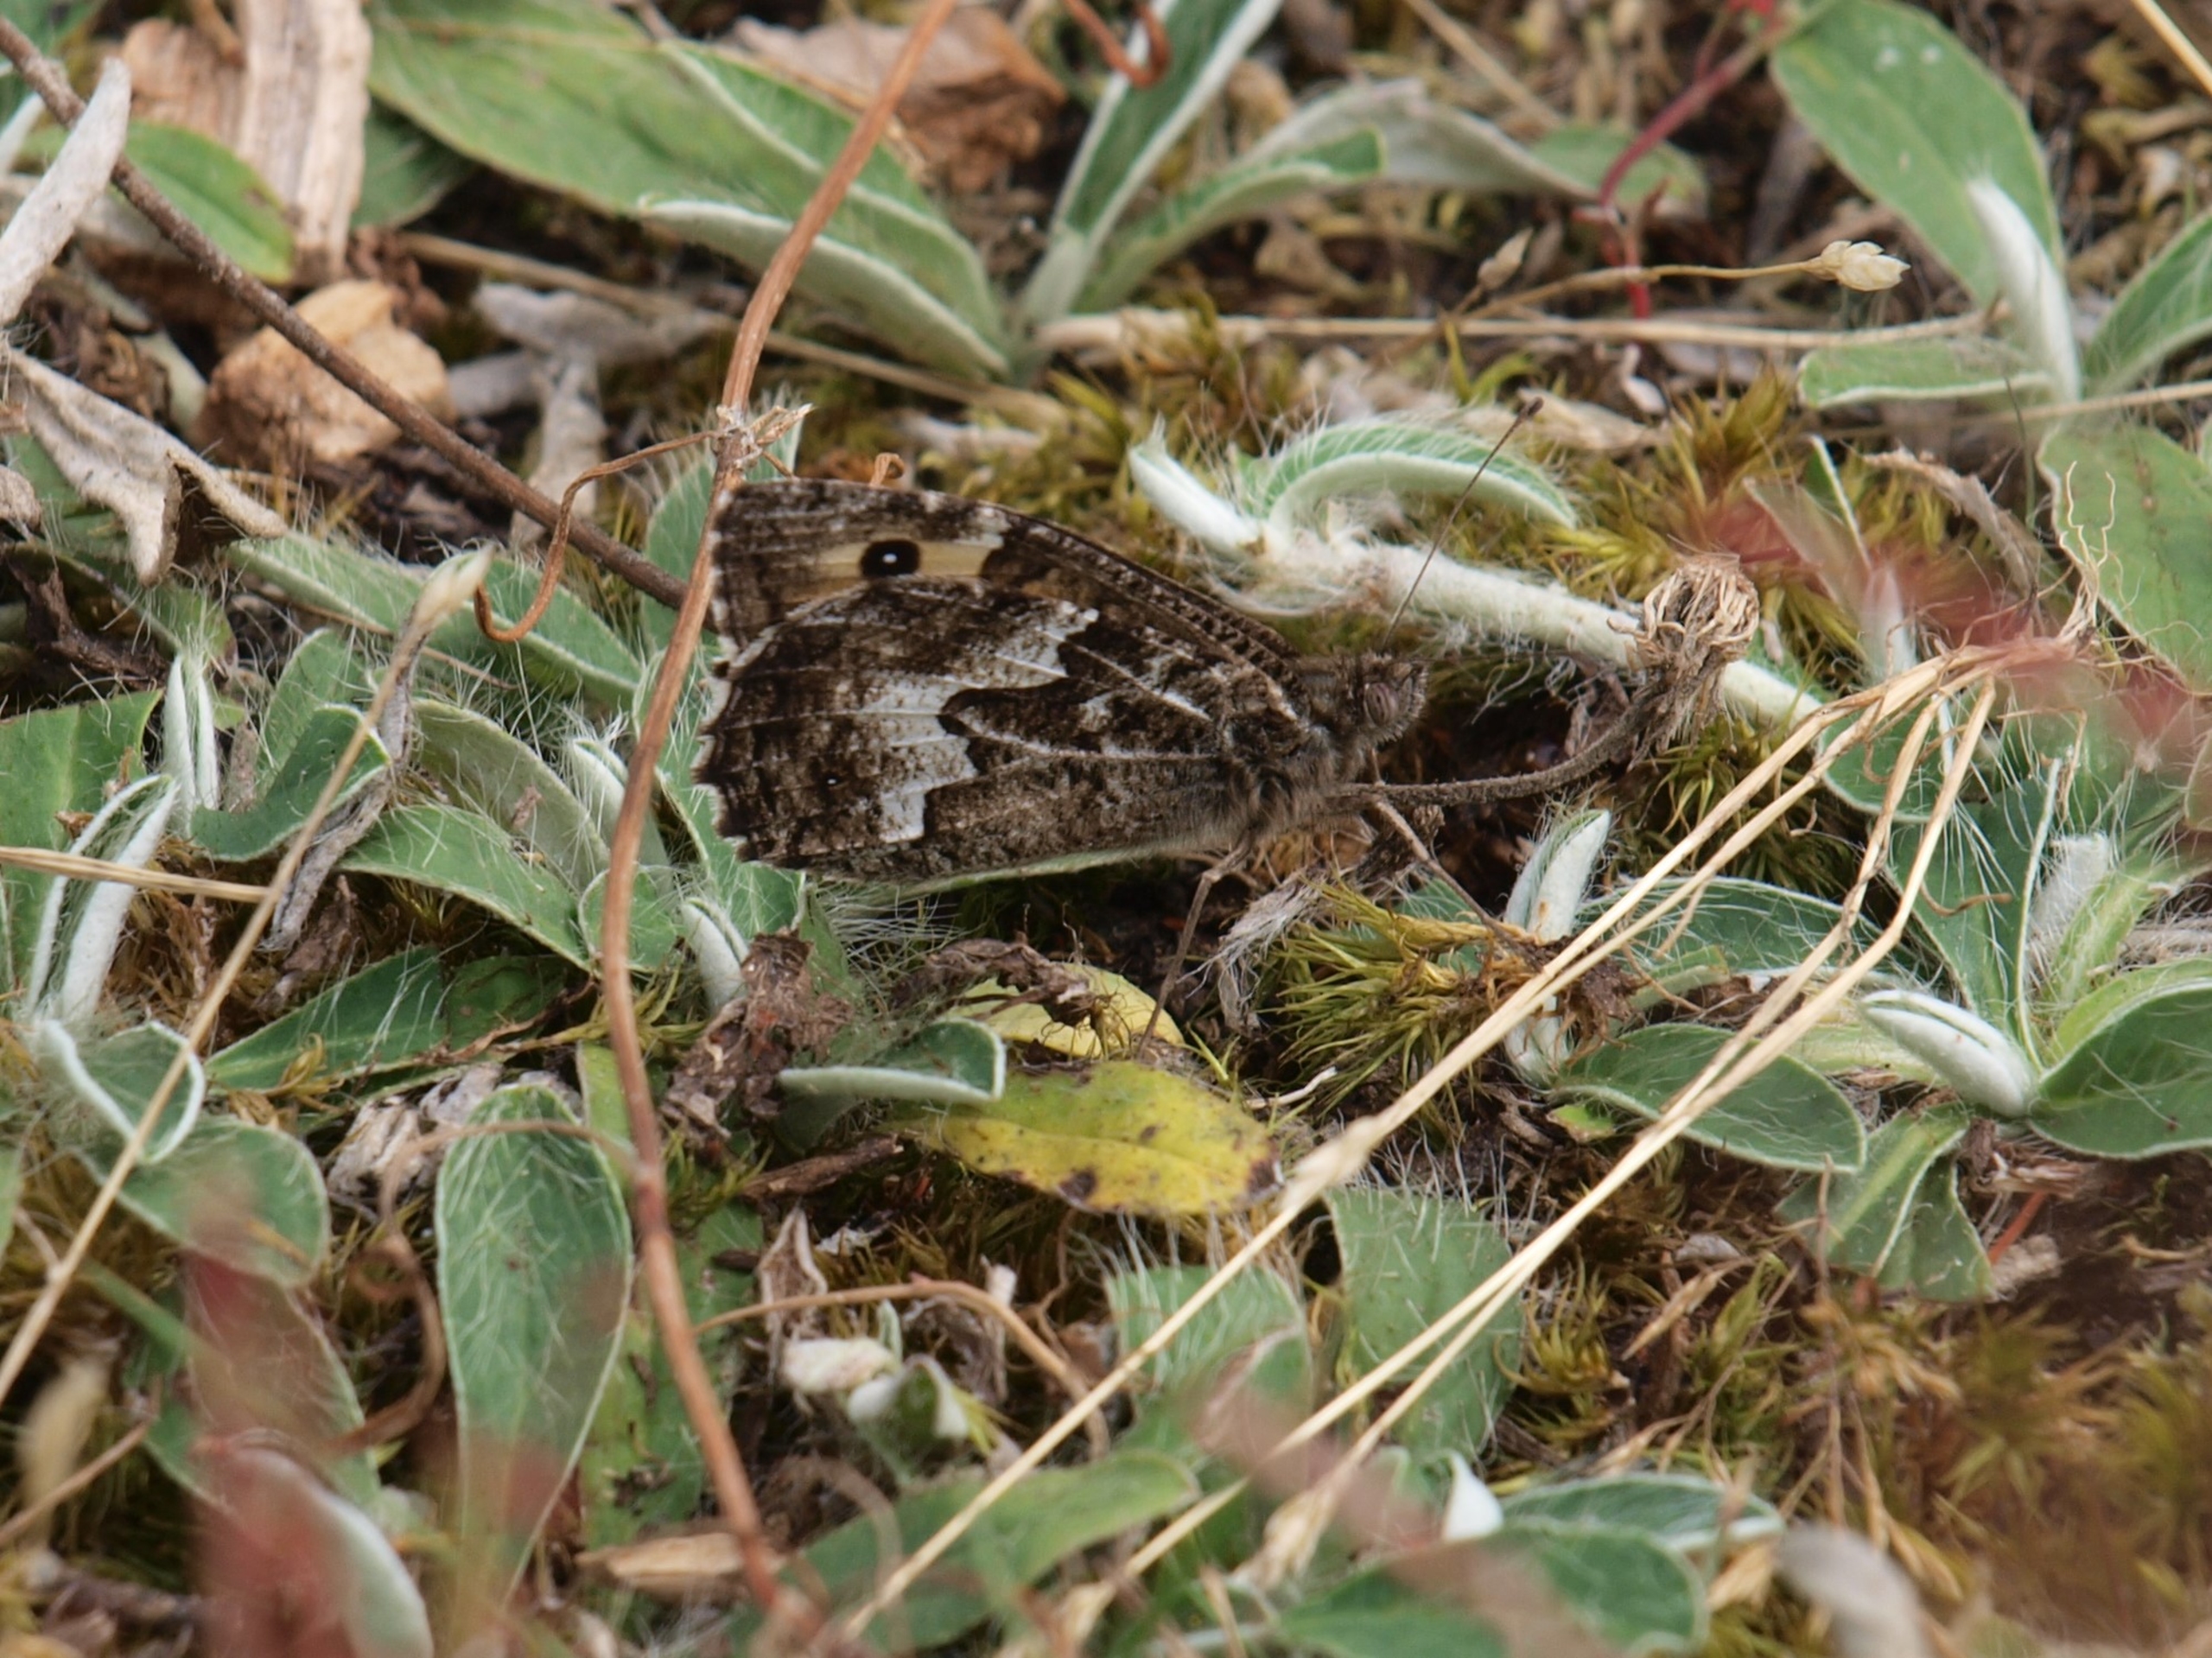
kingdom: Animalia
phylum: Arthropoda
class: Insecta
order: Lepidoptera
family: Nymphalidae
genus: Hipparchia
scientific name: Hipparchia semele
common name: Sandrandøje
